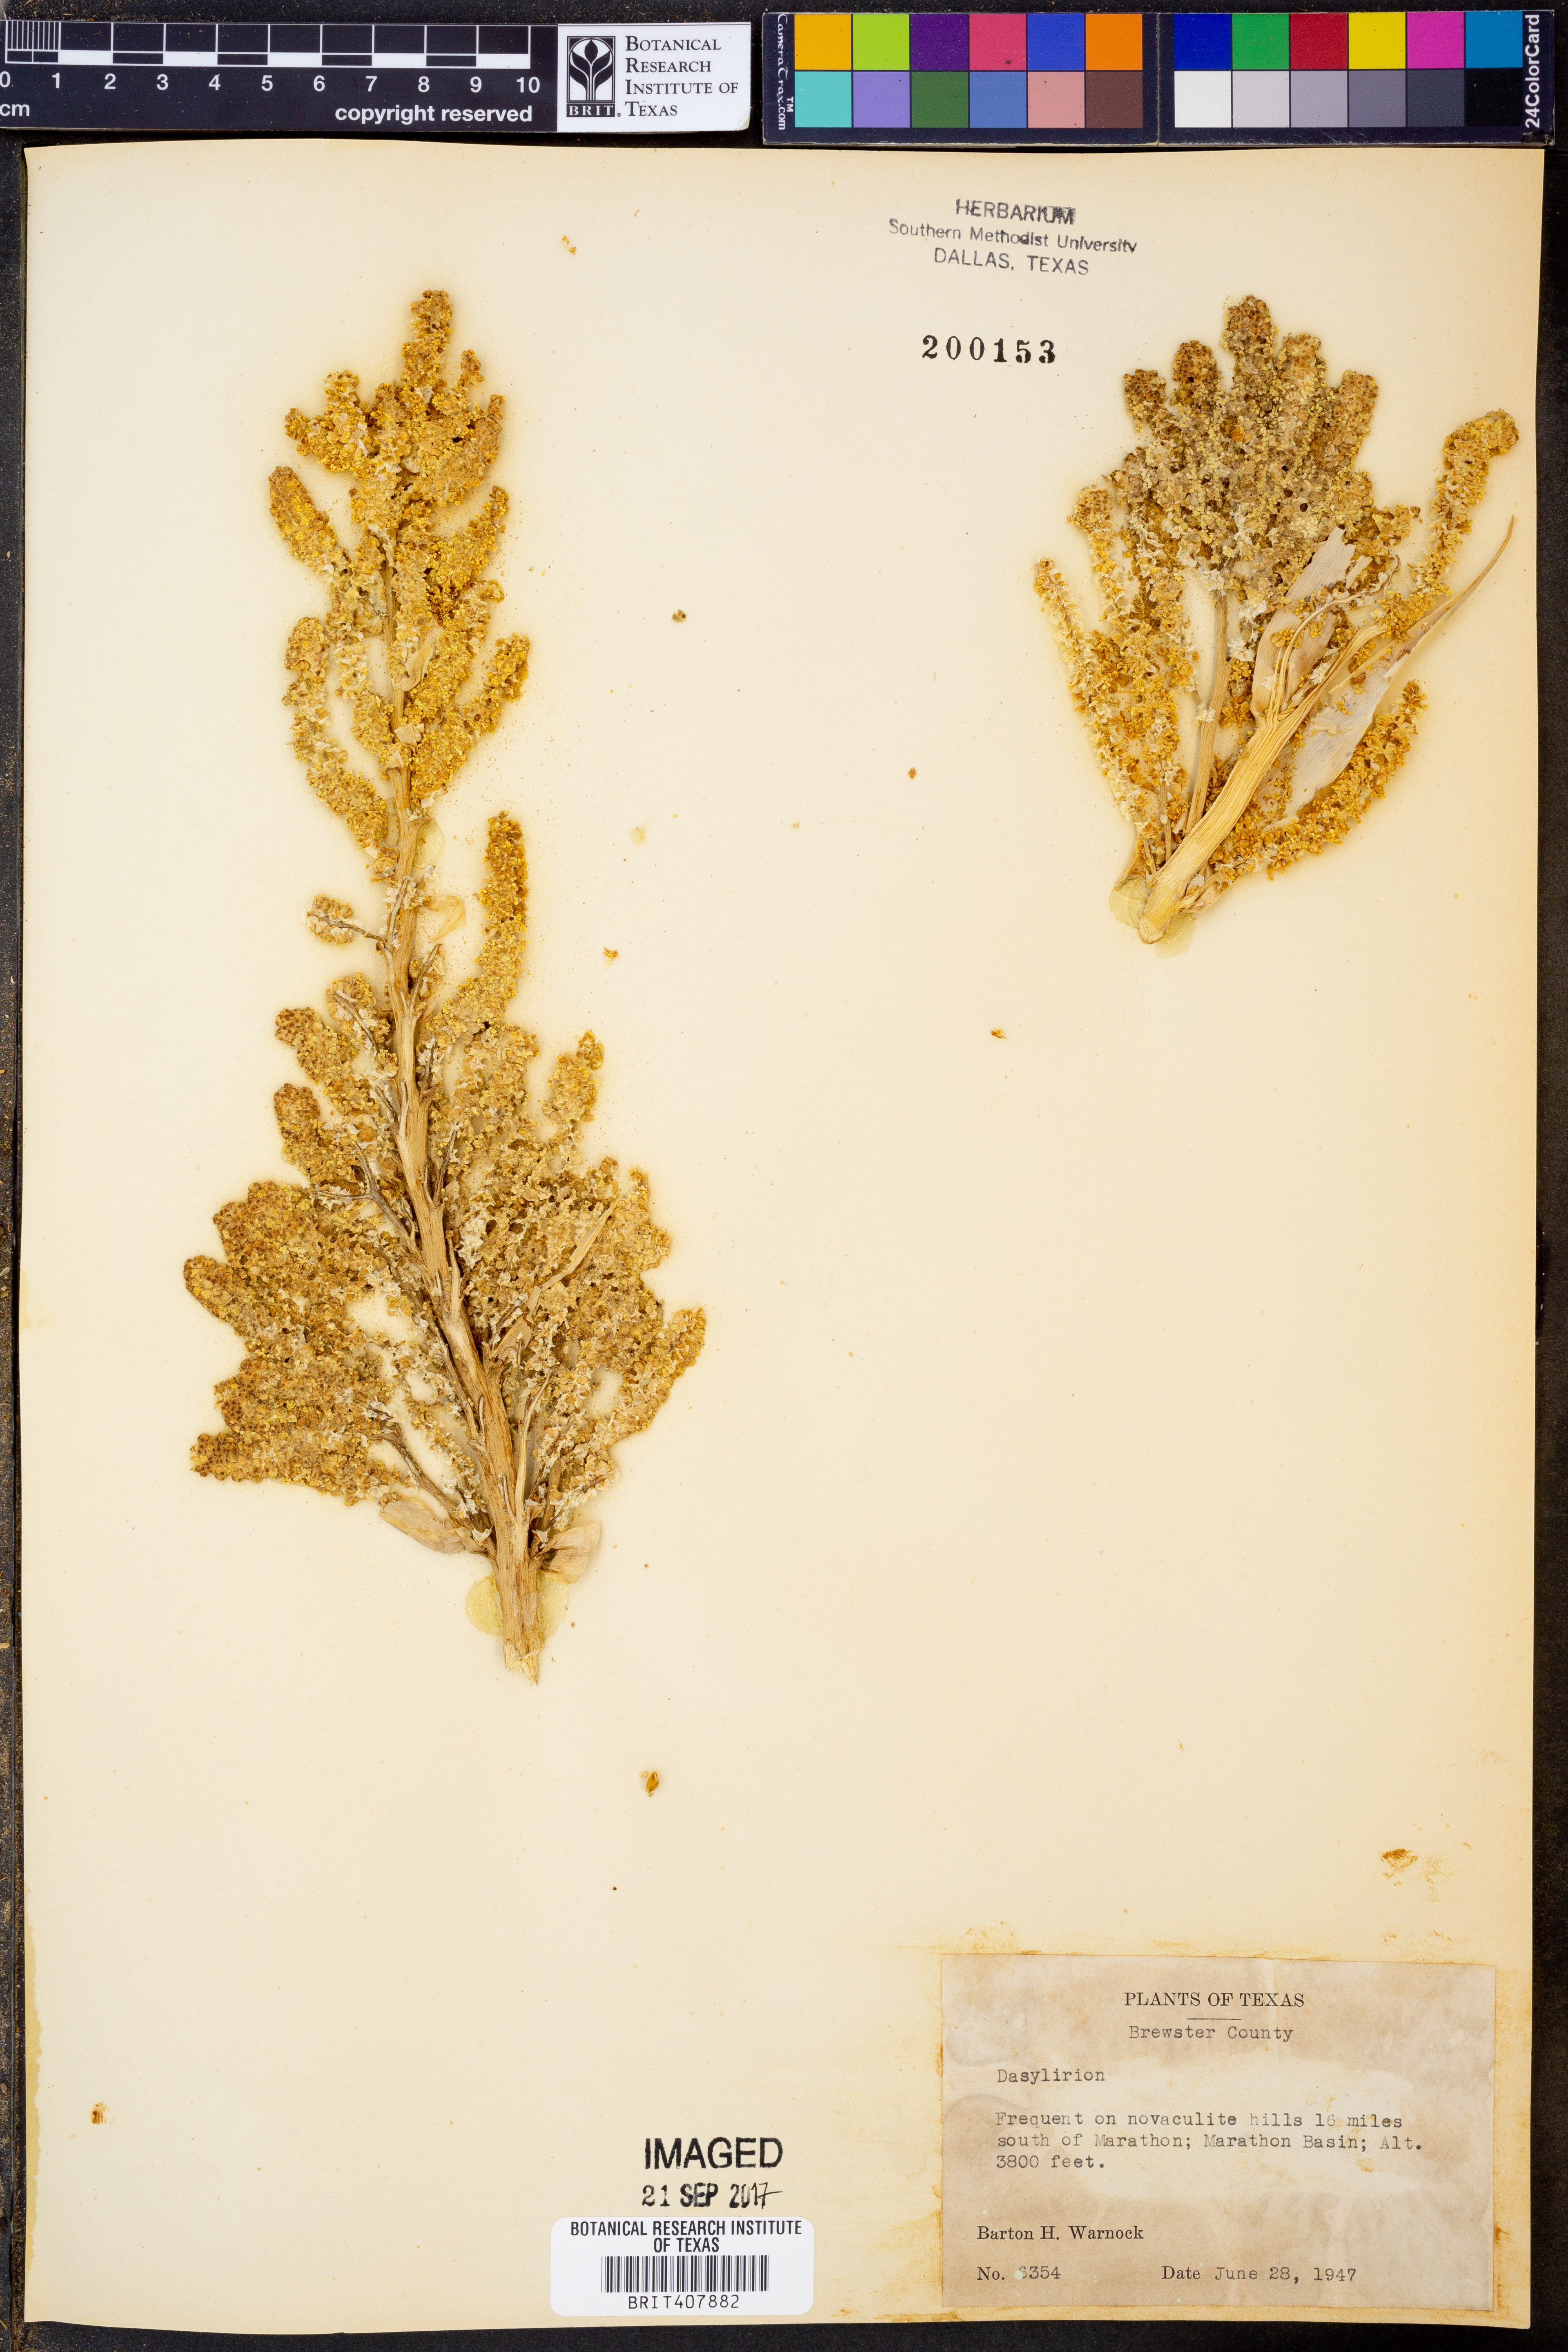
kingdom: Plantae
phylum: Tracheophyta
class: Liliopsida
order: Asparagales
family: Asparagaceae
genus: Dasylirion
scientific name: Dasylirion
